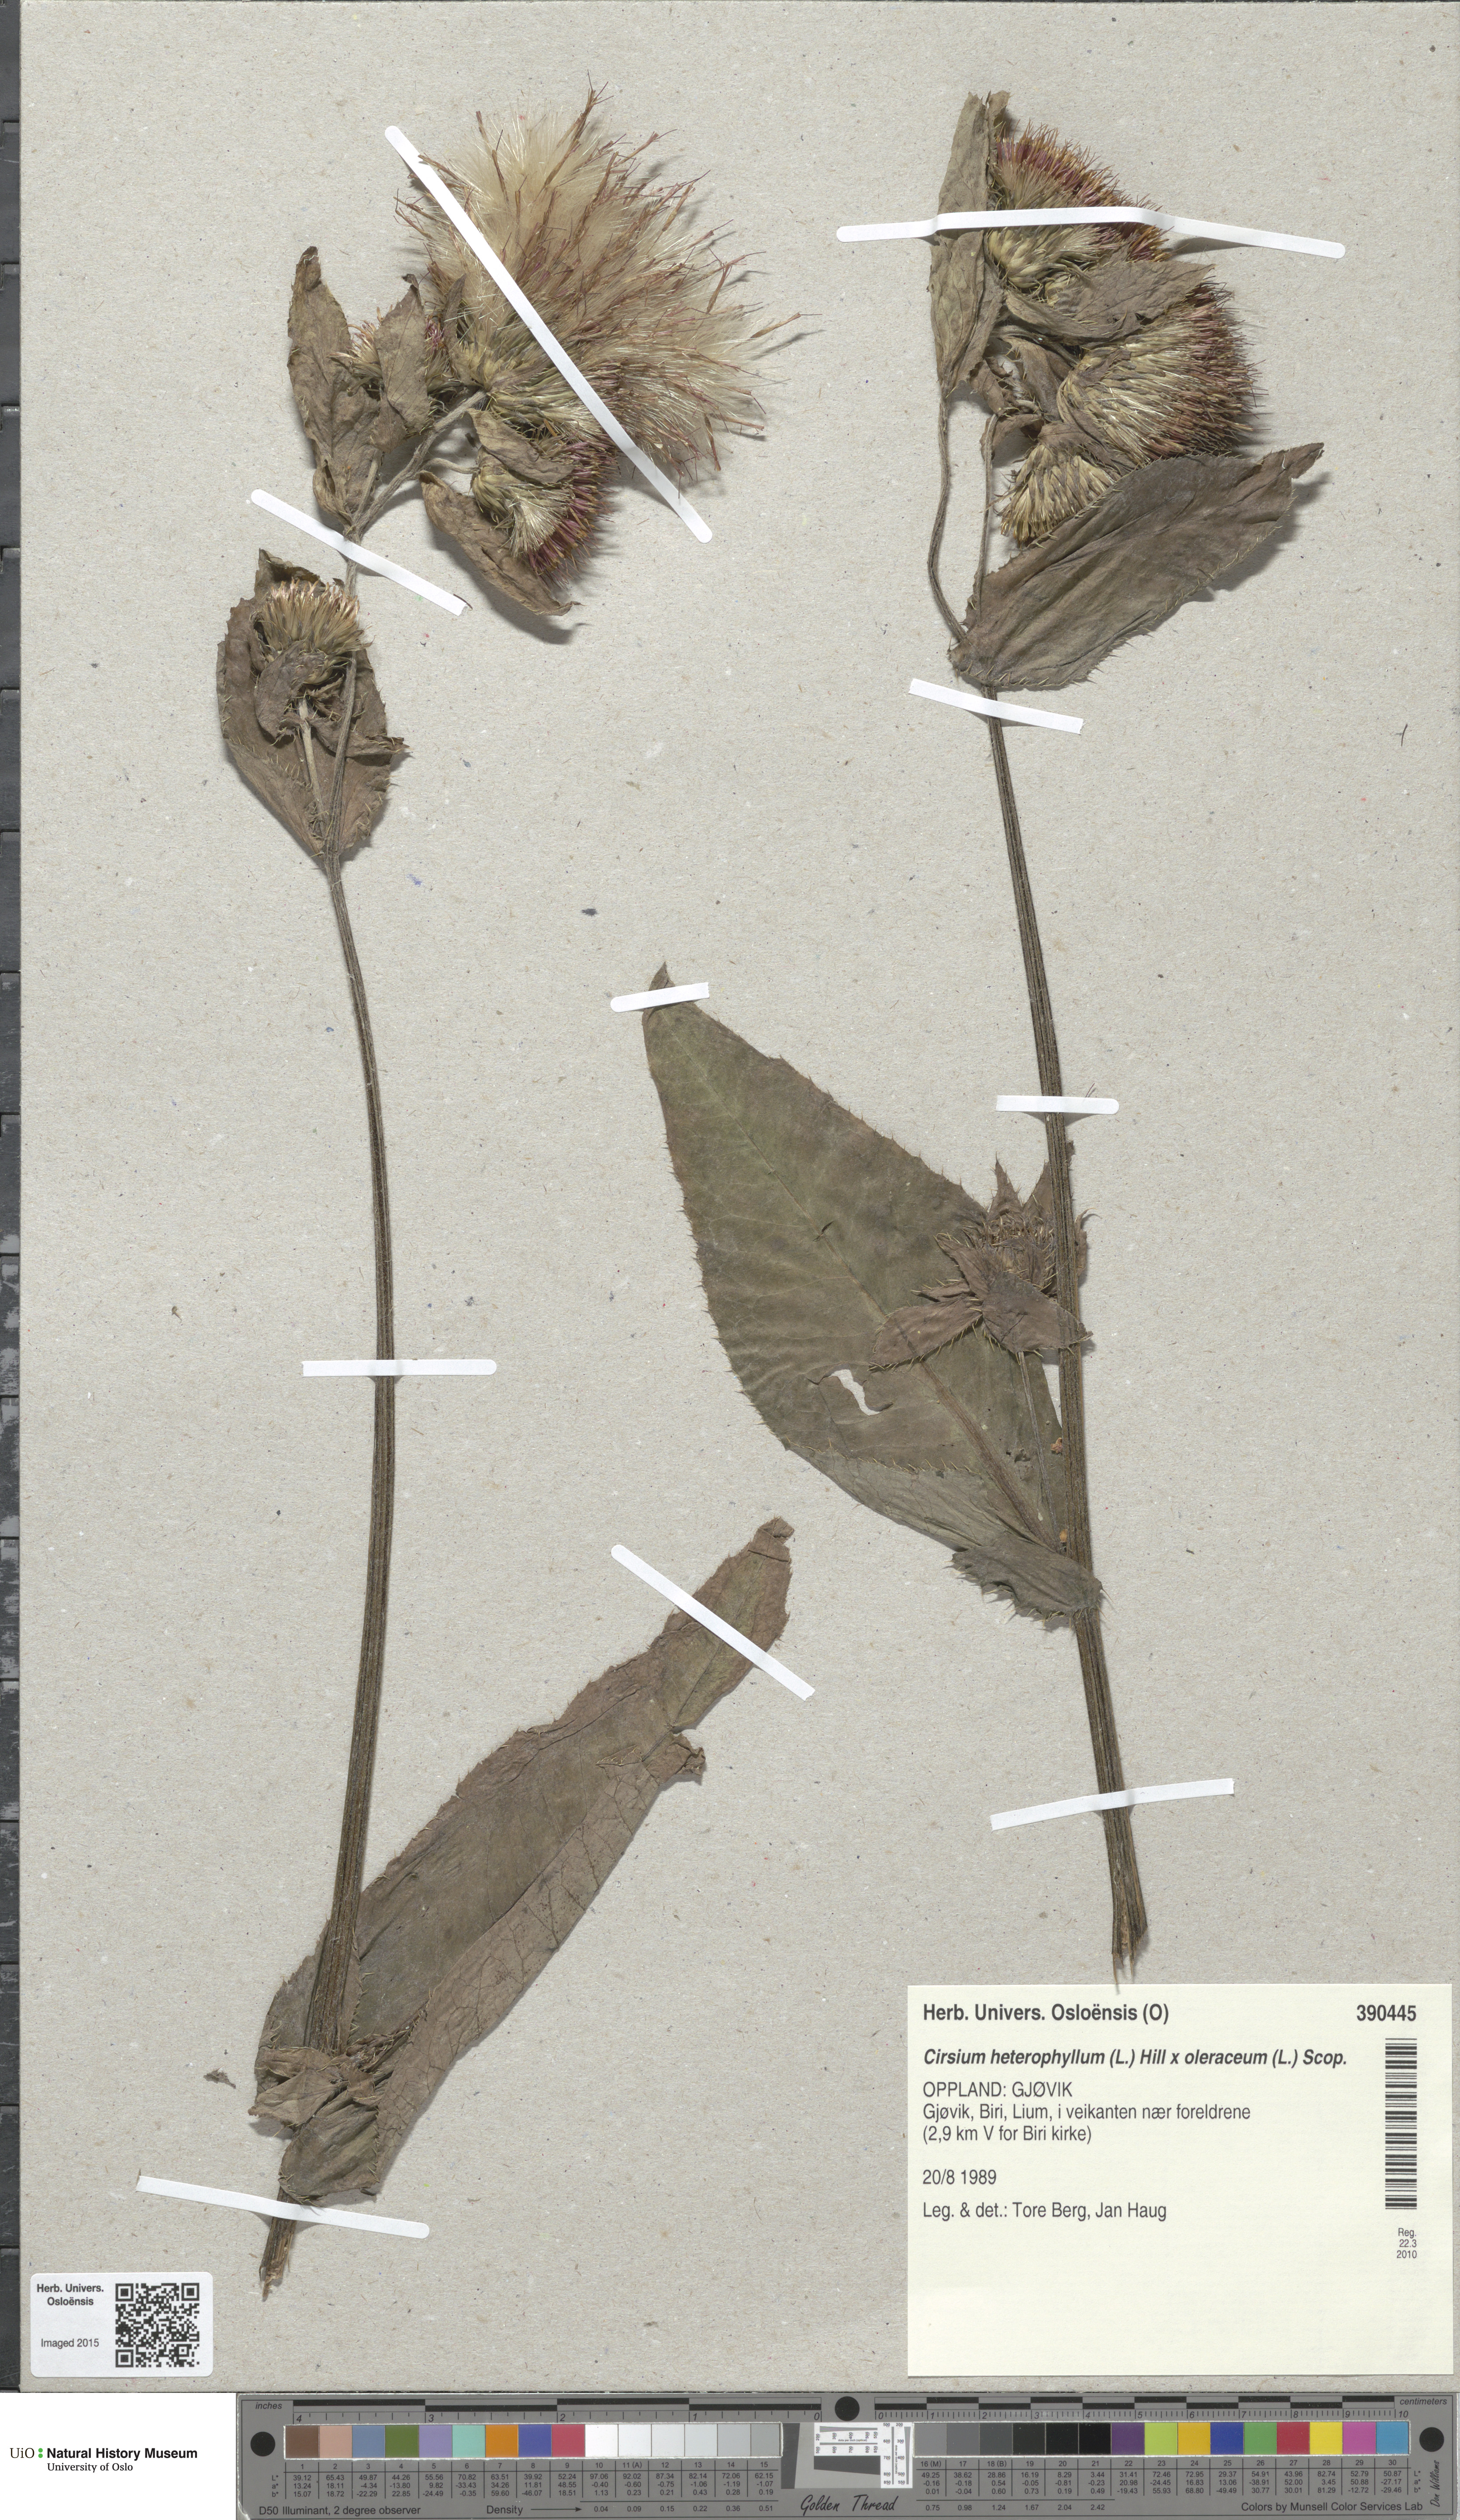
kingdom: Plantae
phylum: Tracheophyta
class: Magnoliopsida
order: Asterales
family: Asteraceae
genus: Cirsium
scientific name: Cirsium
